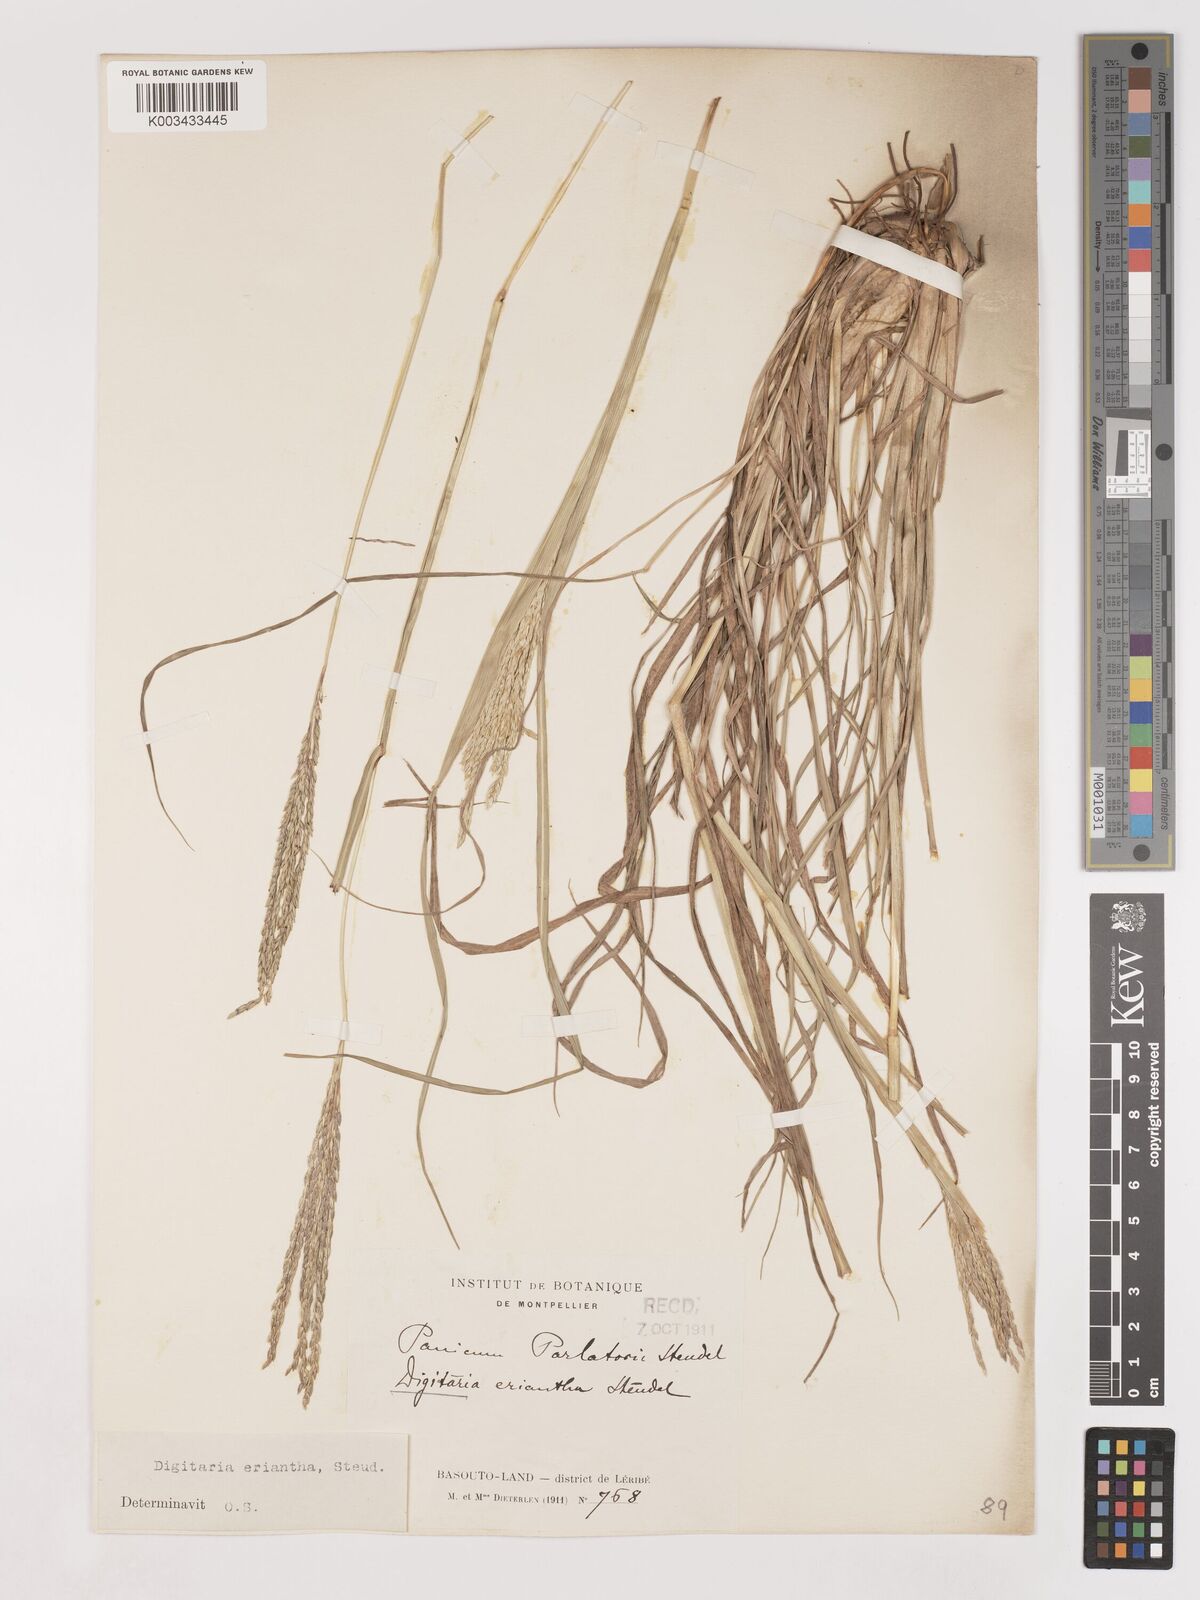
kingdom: Plantae
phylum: Tracheophyta
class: Liliopsida
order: Poales
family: Poaceae
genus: Digitaria
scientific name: Digitaria eriantha
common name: Digitgrass
